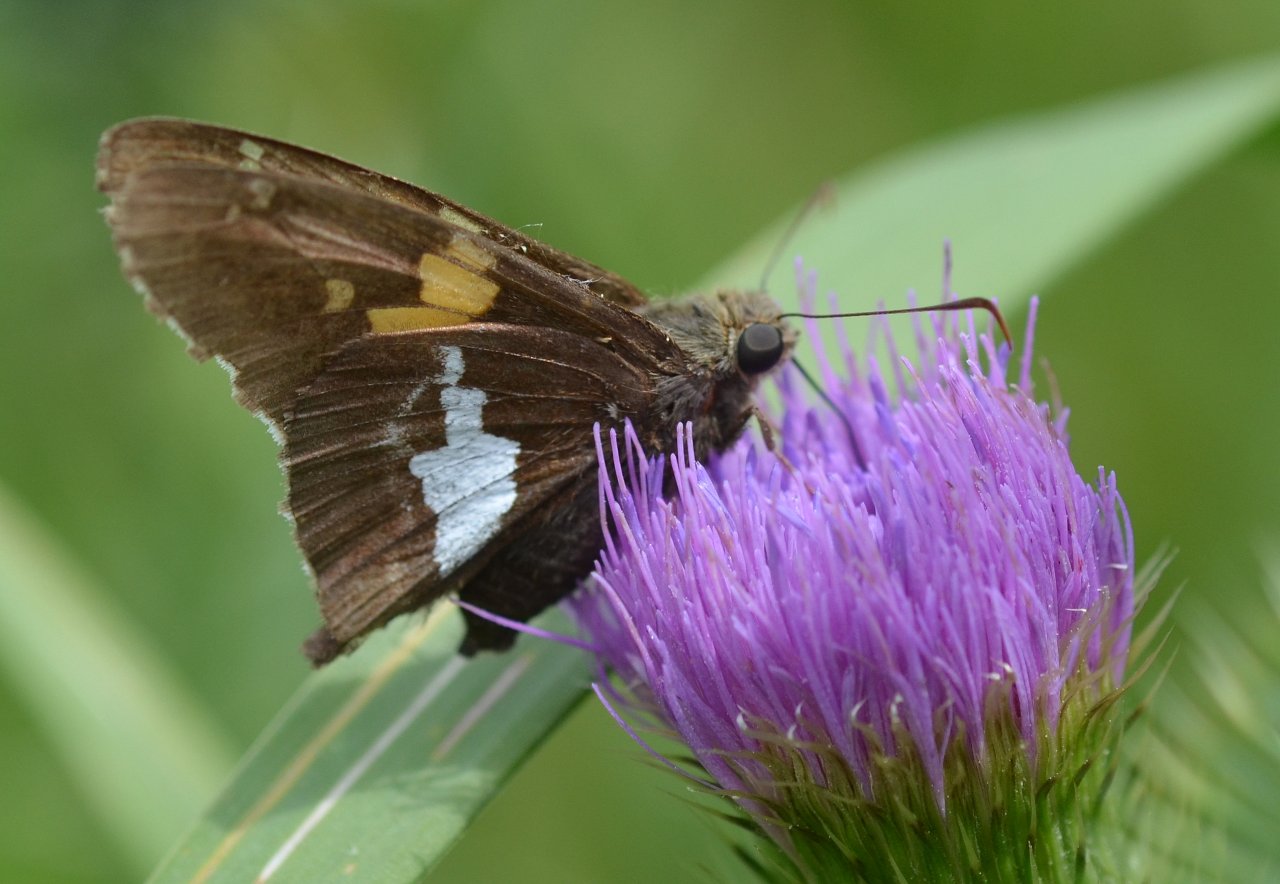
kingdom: Animalia
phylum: Arthropoda
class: Insecta
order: Lepidoptera
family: Hesperiidae
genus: Epargyreus
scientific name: Epargyreus clarus
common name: Silver-spotted Skipper
